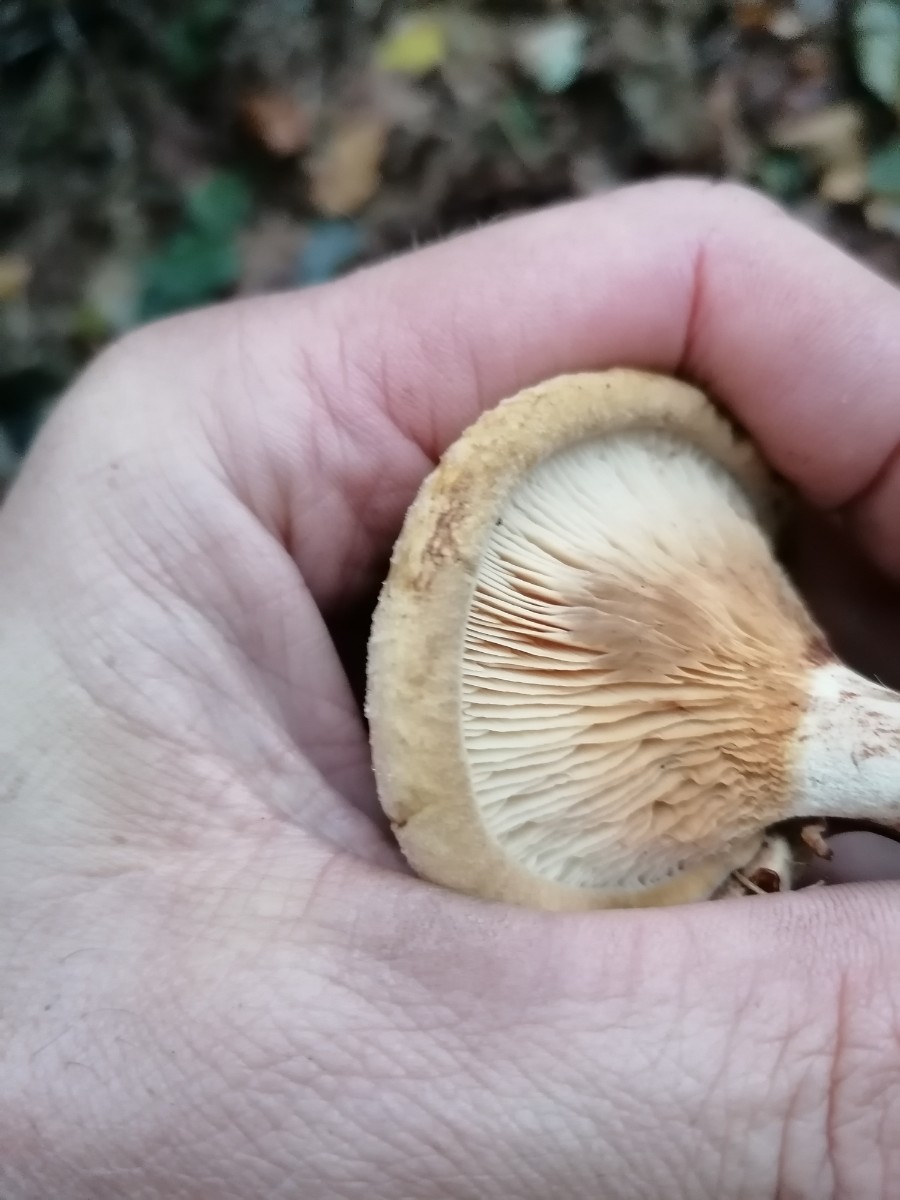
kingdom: Fungi
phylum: Basidiomycota
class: Agaricomycetes
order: Boletales
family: Paxillaceae
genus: Paxillus
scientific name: Paxillus involutus
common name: almindelig netbladhat
